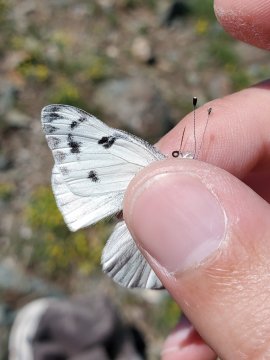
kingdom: Animalia
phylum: Arthropoda
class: Insecta
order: Lepidoptera
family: Pieridae
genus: Pontia
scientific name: Pontia occidentalis
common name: Western White
